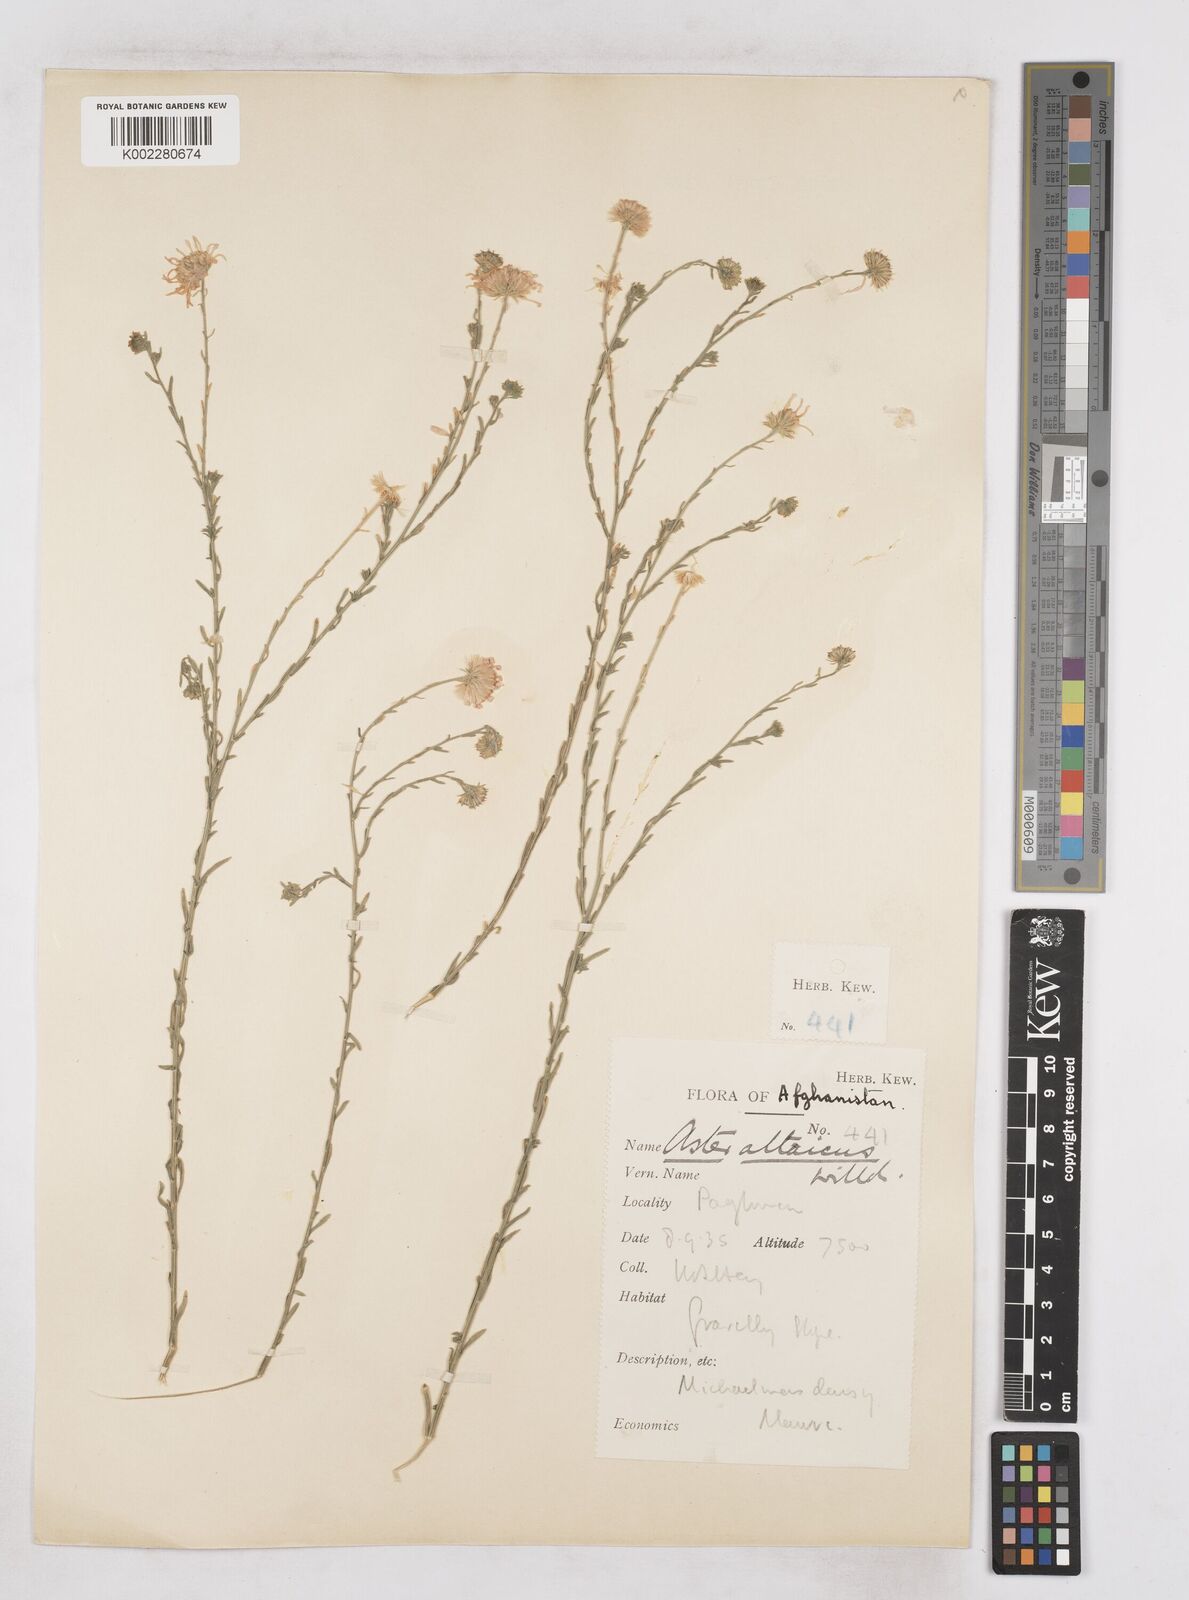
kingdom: Plantae
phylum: Tracheophyta
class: Magnoliopsida
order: Asterales
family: Asteraceae
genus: Heteropappus
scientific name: Heteropappus altaicus
